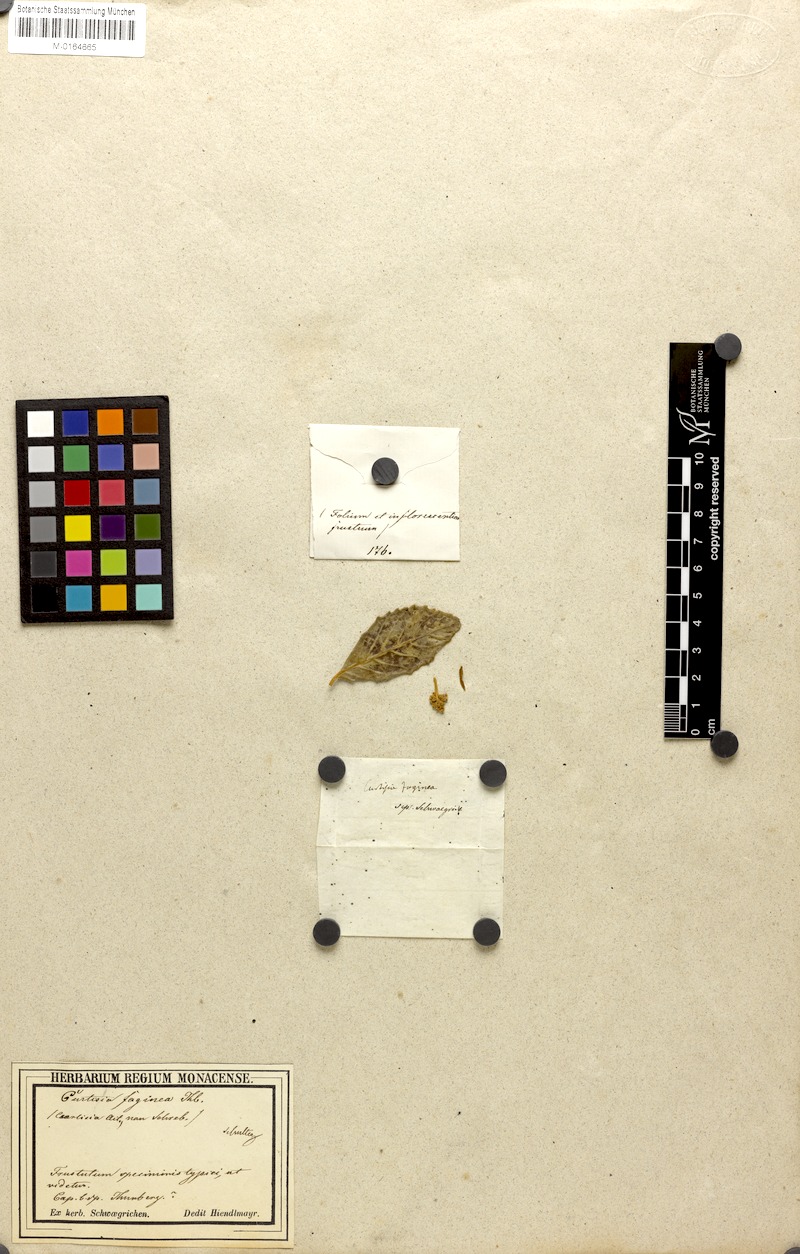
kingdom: Plantae
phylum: Tracheophyta
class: Magnoliopsida
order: Cornales
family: Curtisiaceae
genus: Curtisia
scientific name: Curtisia dentata
